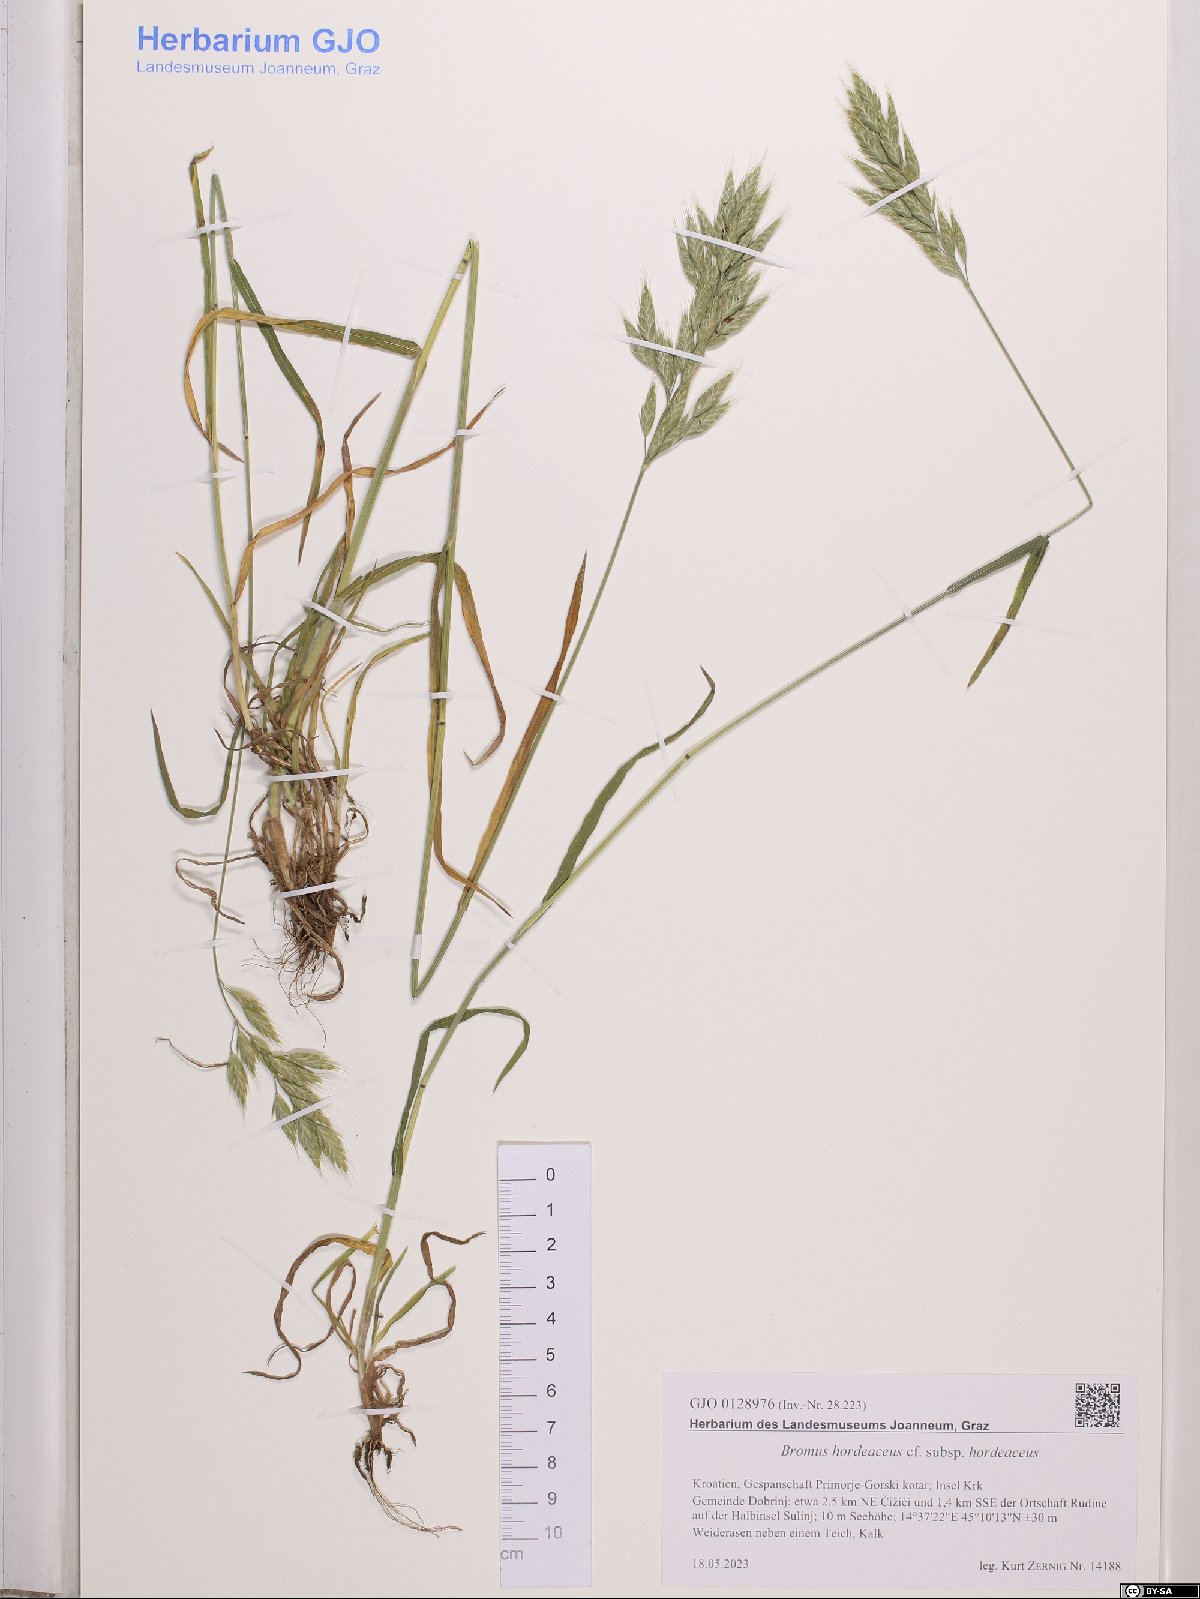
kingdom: Plantae
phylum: Tracheophyta
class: Liliopsida
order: Poales
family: Poaceae
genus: Bromus
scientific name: Bromus hordeaceus
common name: Soft brome
